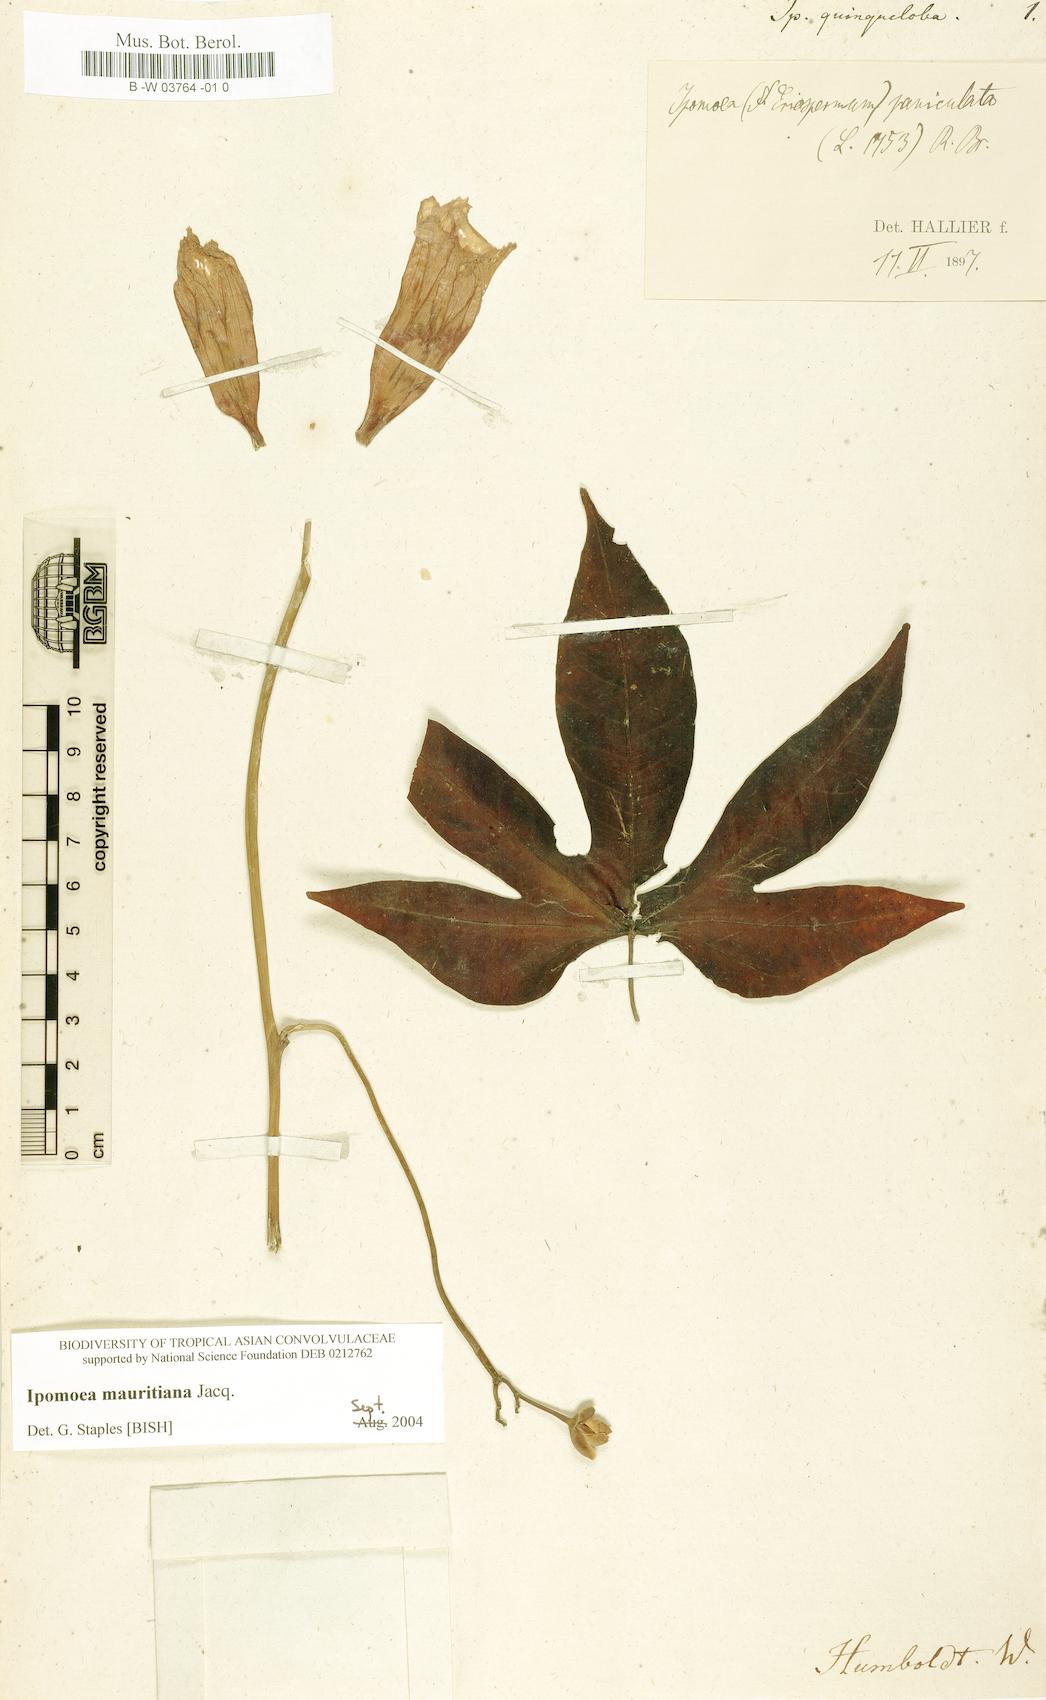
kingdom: Plantae
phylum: Tracheophyta
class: Magnoliopsida
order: Solanales
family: Convolvulaceae
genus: Ipomoea
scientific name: Ipomoea
